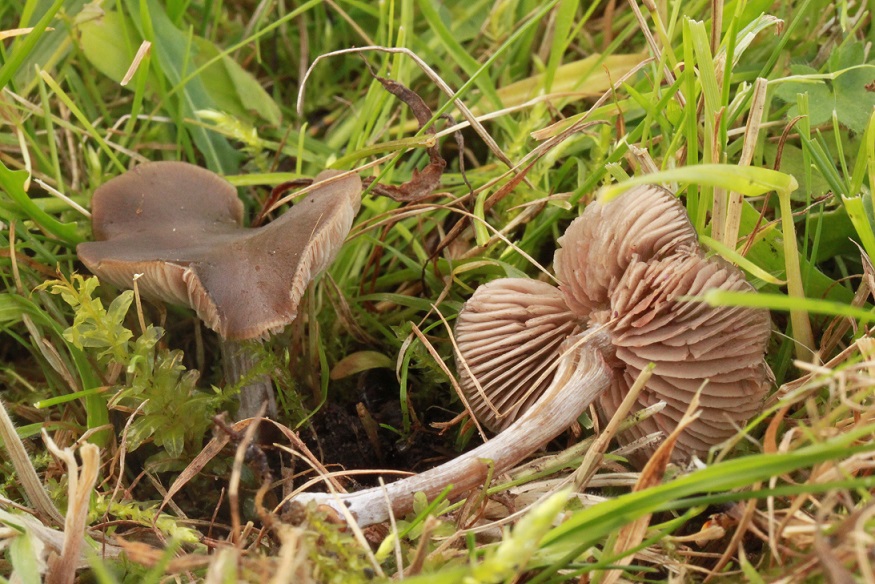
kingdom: Fungi
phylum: Basidiomycota
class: Agaricomycetes
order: Agaricales
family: Entolomataceae
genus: Entoloma
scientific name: Entoloma sericeum
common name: silkeglinsende rødblad
